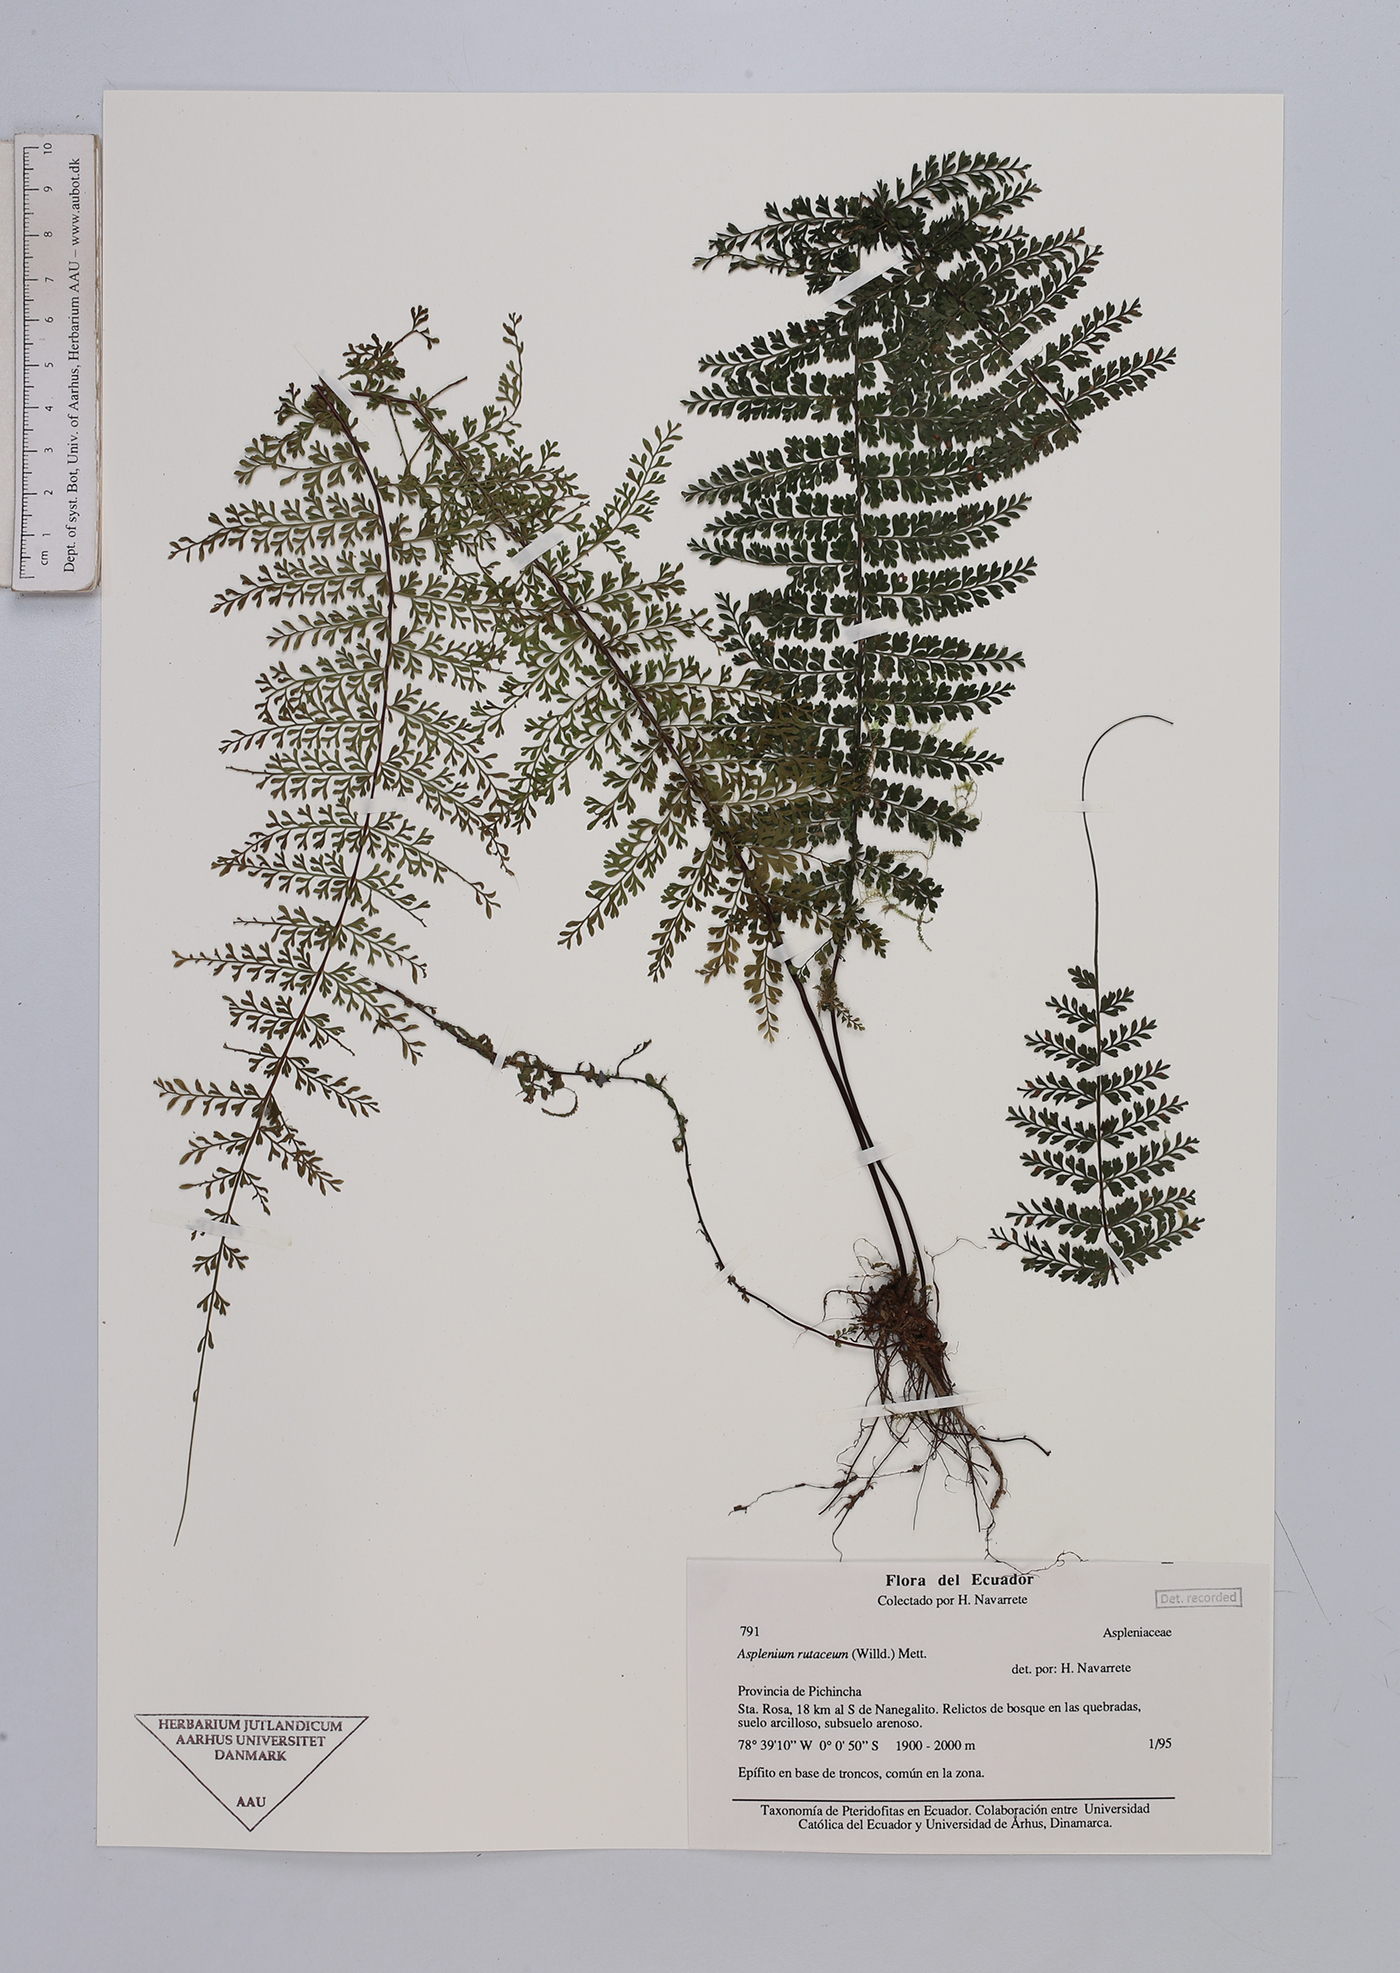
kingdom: Plantae
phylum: Tracheophyta
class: Polypodiopsida
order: Polypodiales
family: Aspleniaceae
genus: Asplenium
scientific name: Asplenium
